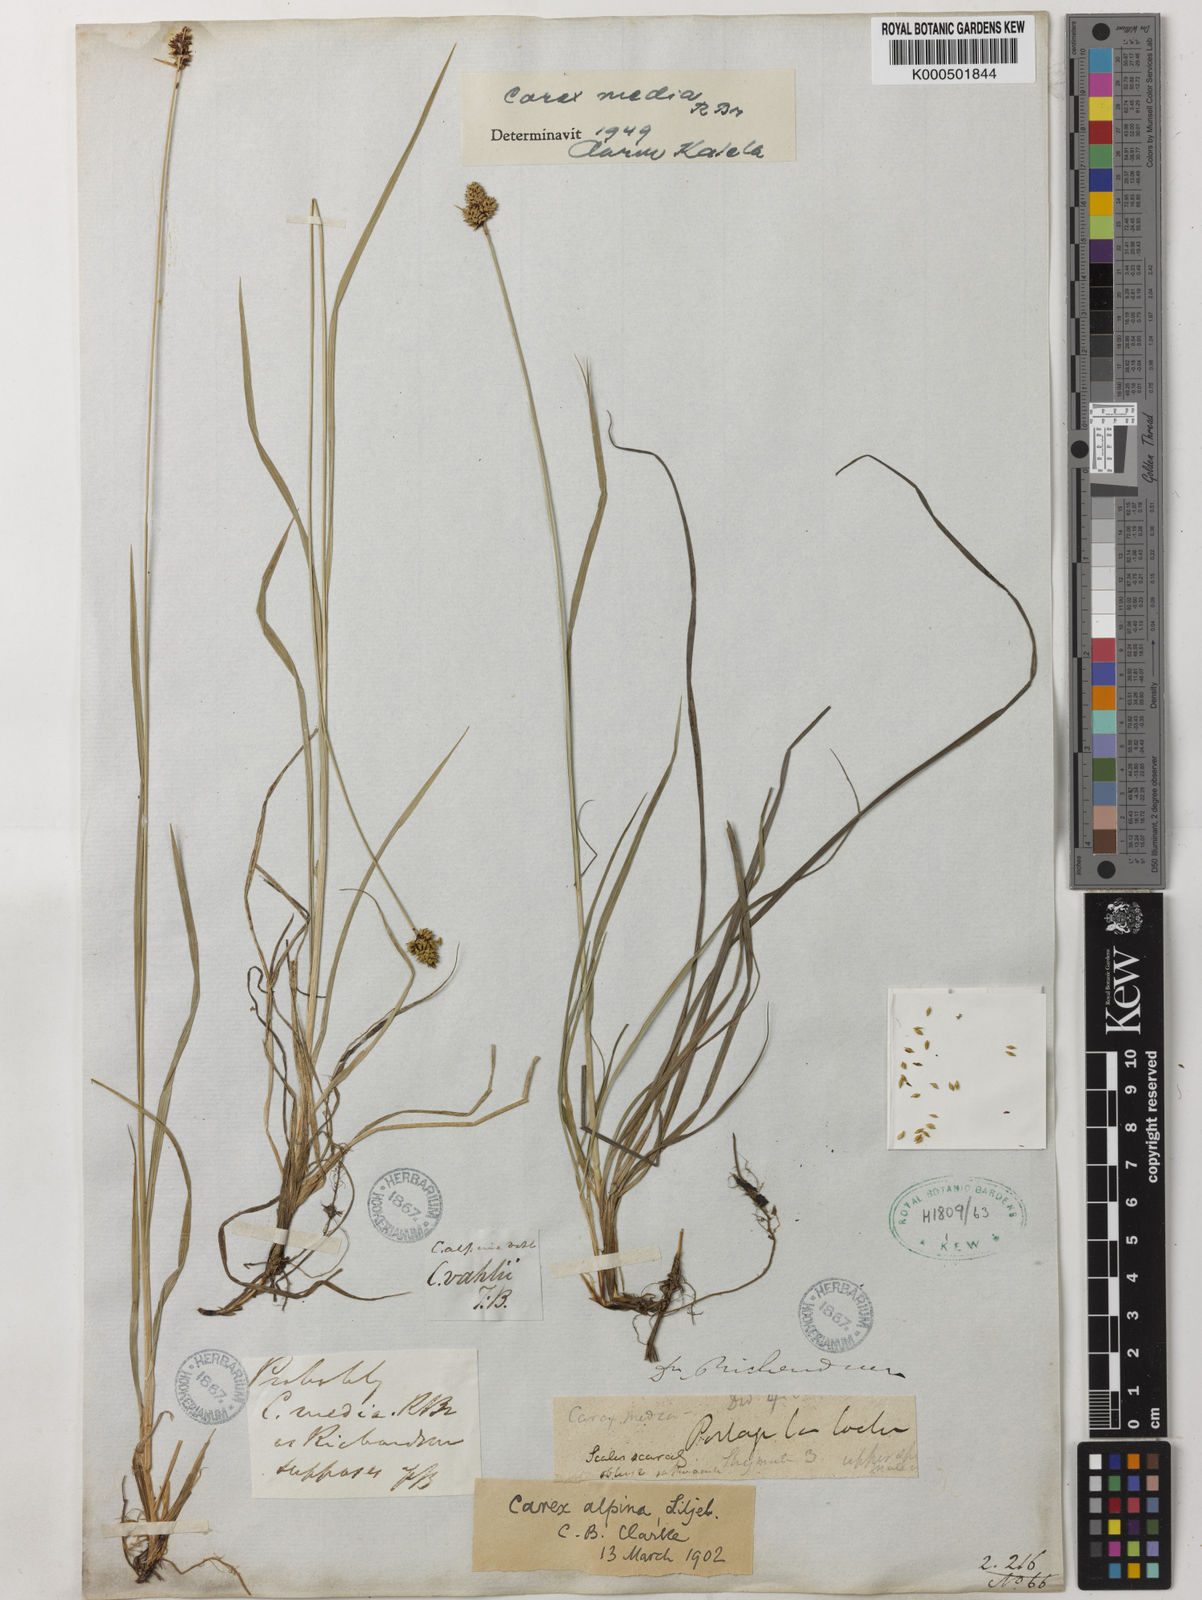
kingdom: Plantae
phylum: Tracheophyta
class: Liliopsida
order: Poales
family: Cyperaceae
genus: Carex
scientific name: Carex media
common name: Alpine sedge
